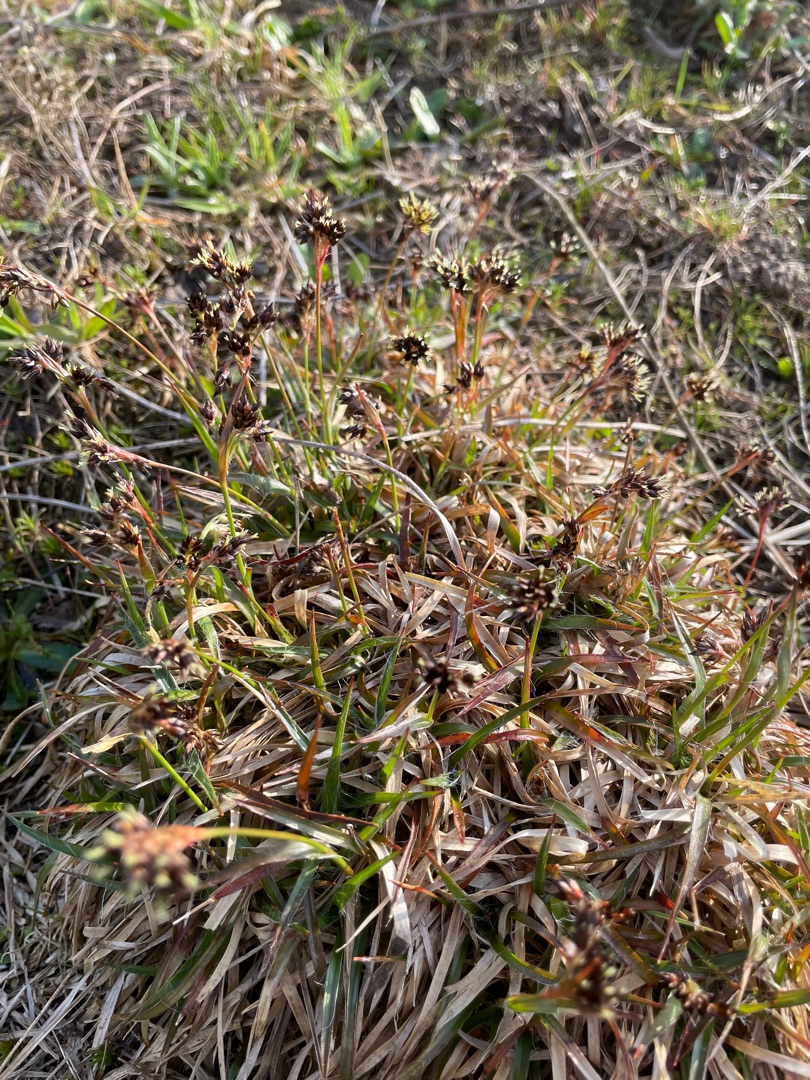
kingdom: Plantae
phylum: Tracheophyta
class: Liliopsida
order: Poales
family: Juncaceae
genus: Luzula
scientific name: Luzula campestris
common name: Mark-frytle
